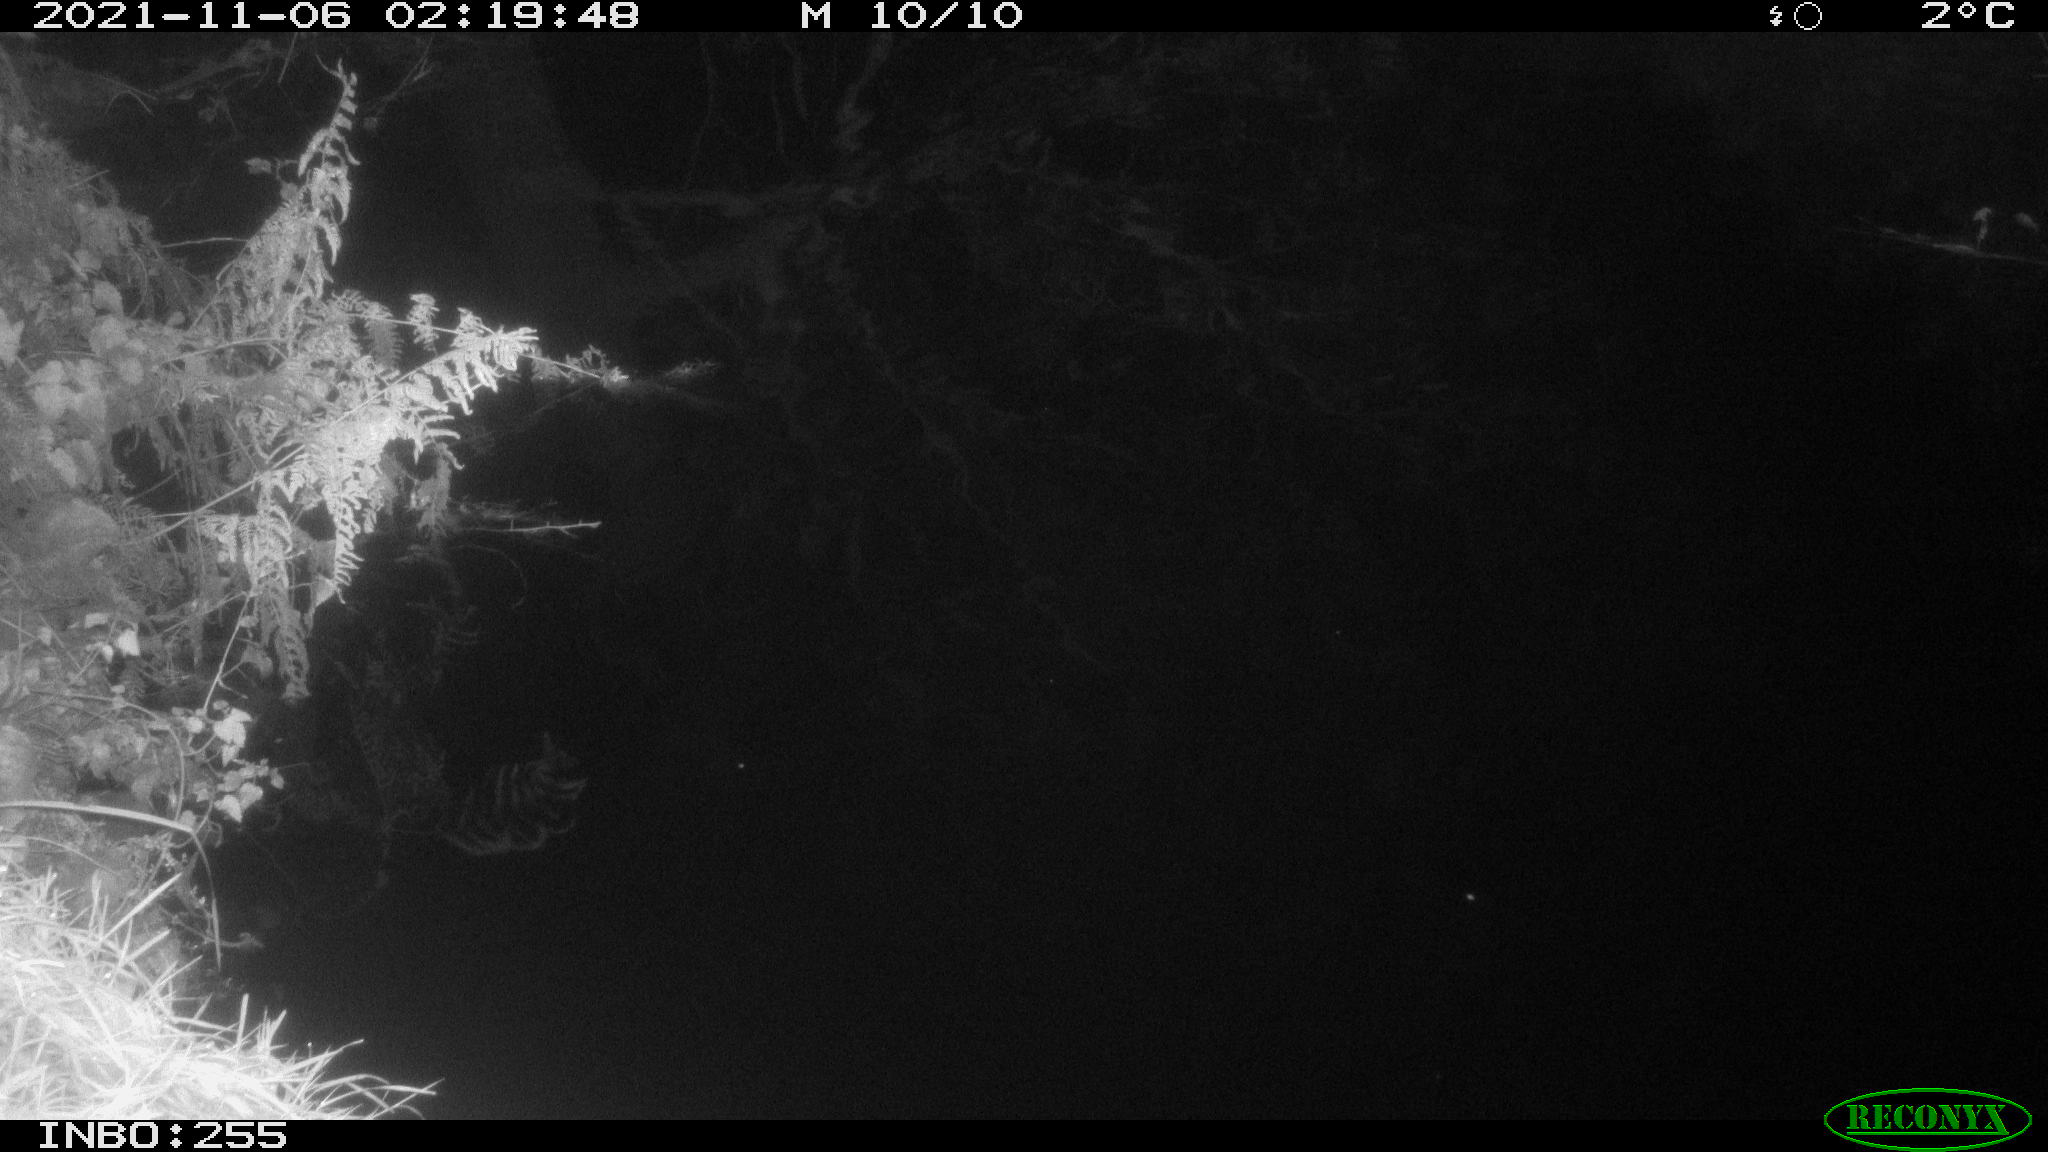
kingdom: Animalia
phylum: Chordata
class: Mammalia
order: Rodentia
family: Muridae
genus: Rattus
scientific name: Rattus norvegicus
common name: Brown rat
